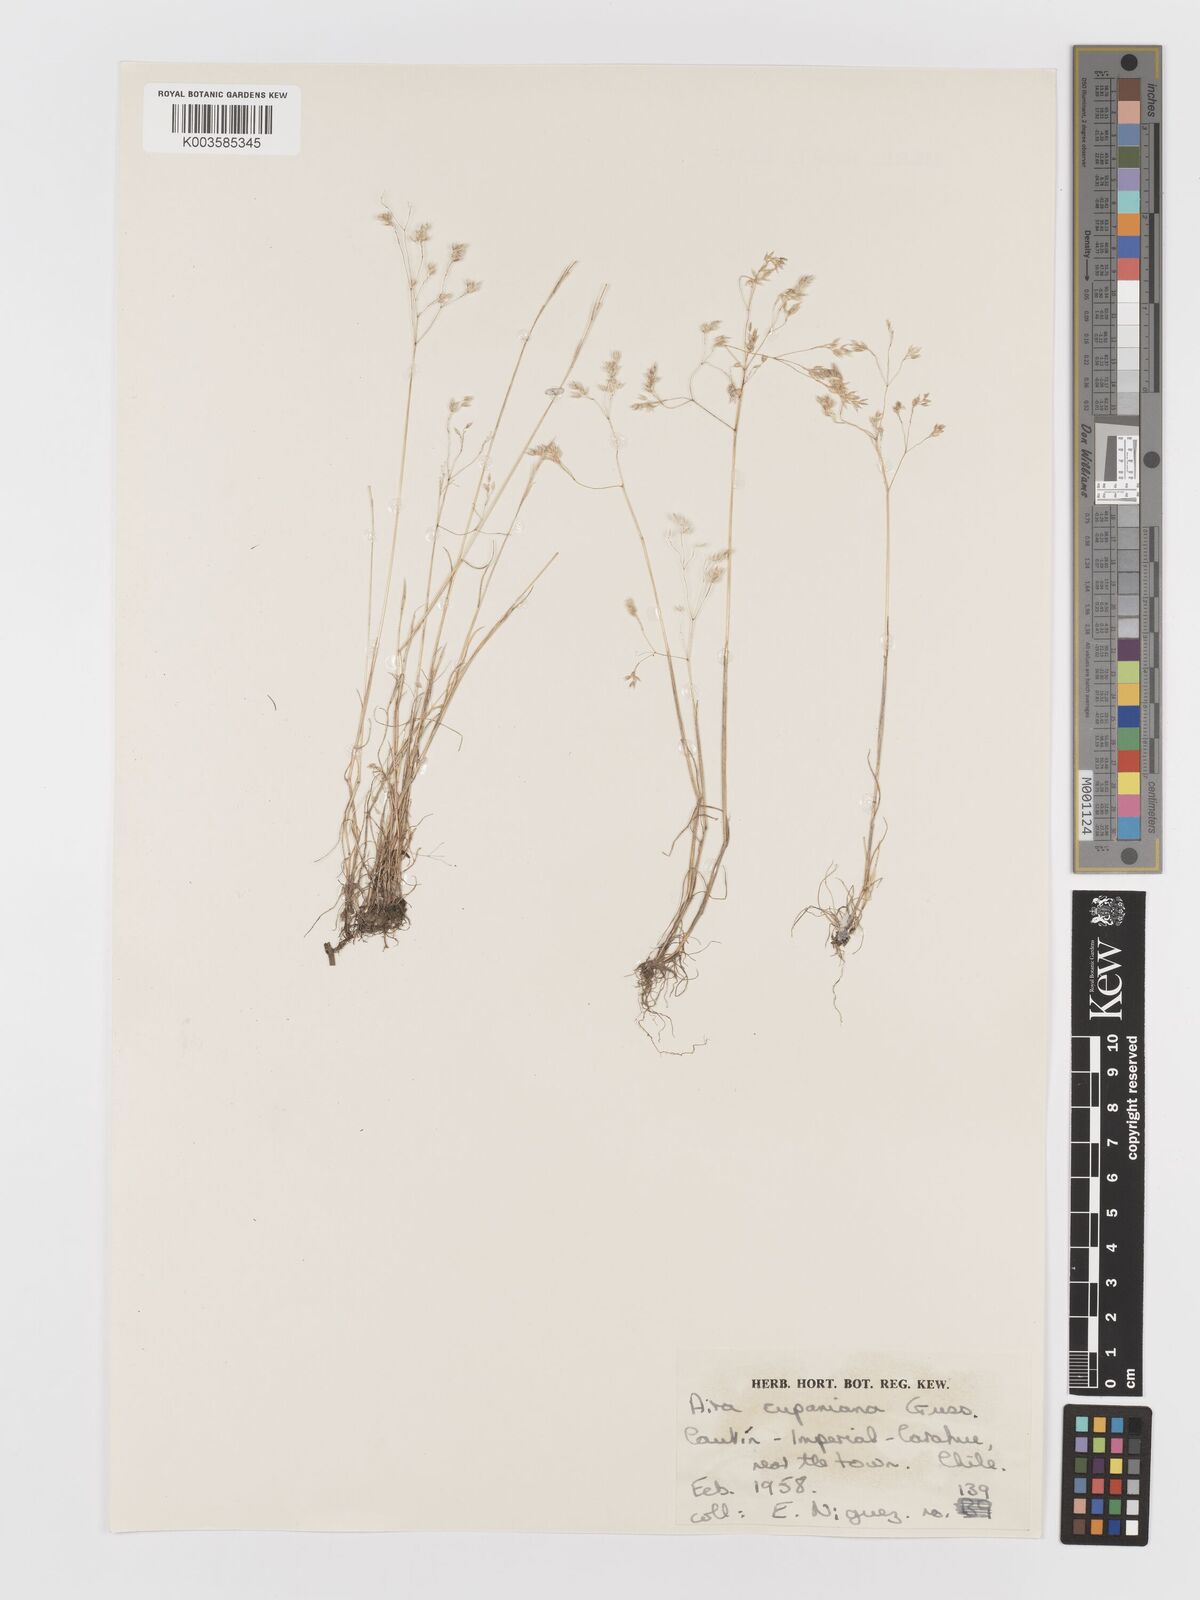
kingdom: Plantae
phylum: Tracheophyta
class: Liliopsida
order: Poales
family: Poaceae
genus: Aira
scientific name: Aira caryophyllea
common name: Silver hairgrass
